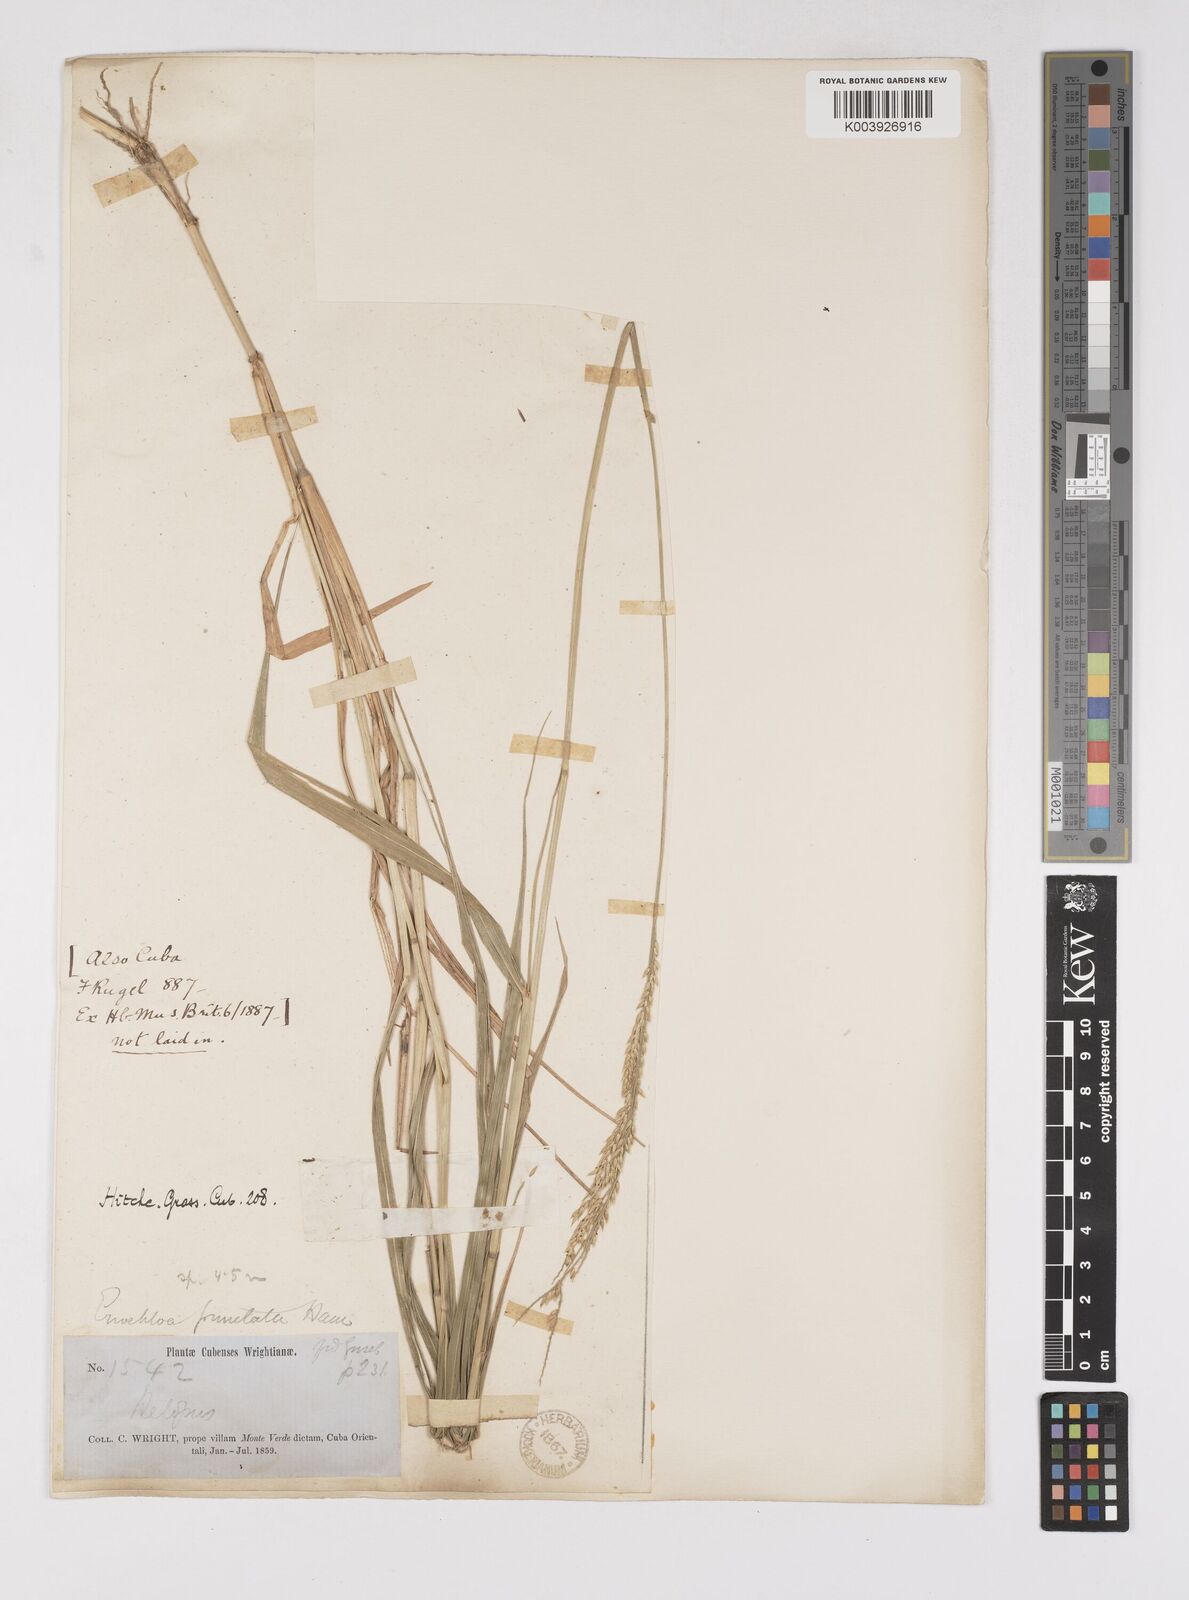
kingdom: Plantae
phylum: Tracheophyta
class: Liliopsida
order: Poales
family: Poaceae
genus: Eriochloa
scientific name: Eriochloa punctata
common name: Louisiana cupgrass
